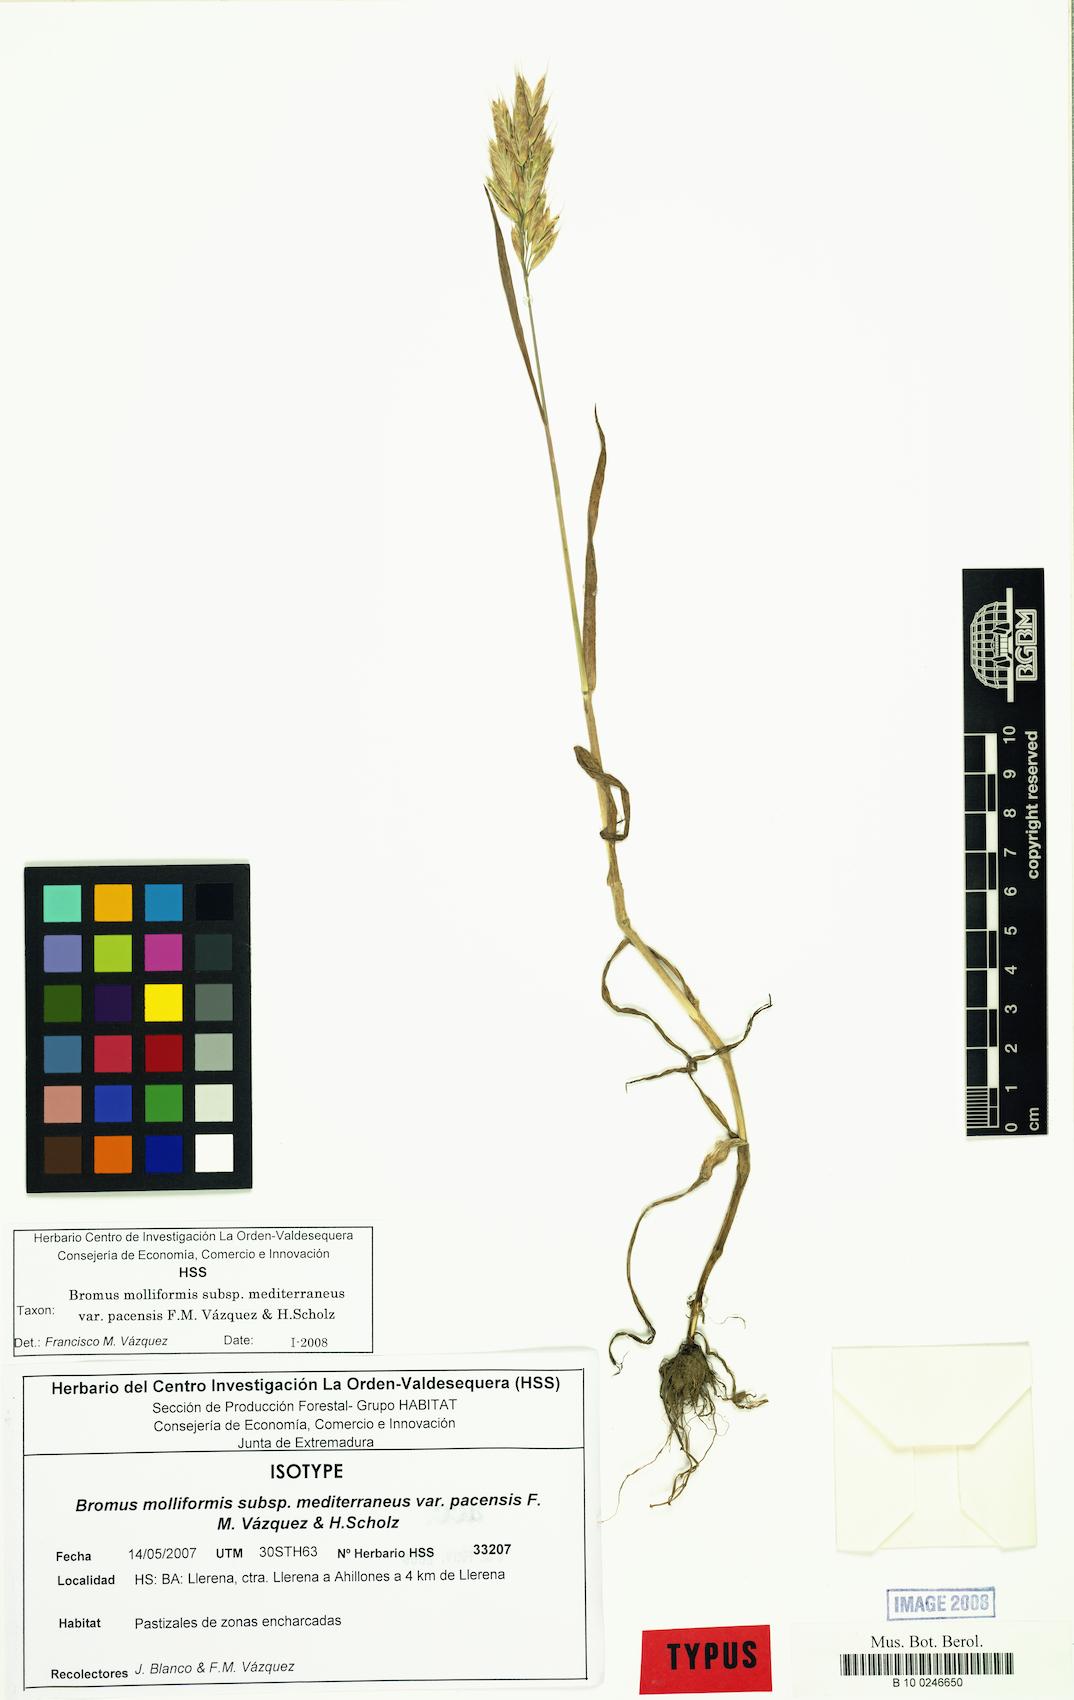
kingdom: Plantae
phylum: Tracheophyta
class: Liliopsida
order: Poales
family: Poaceae
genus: Bromus
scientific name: Bromus hordeaceus
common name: Soft brome
